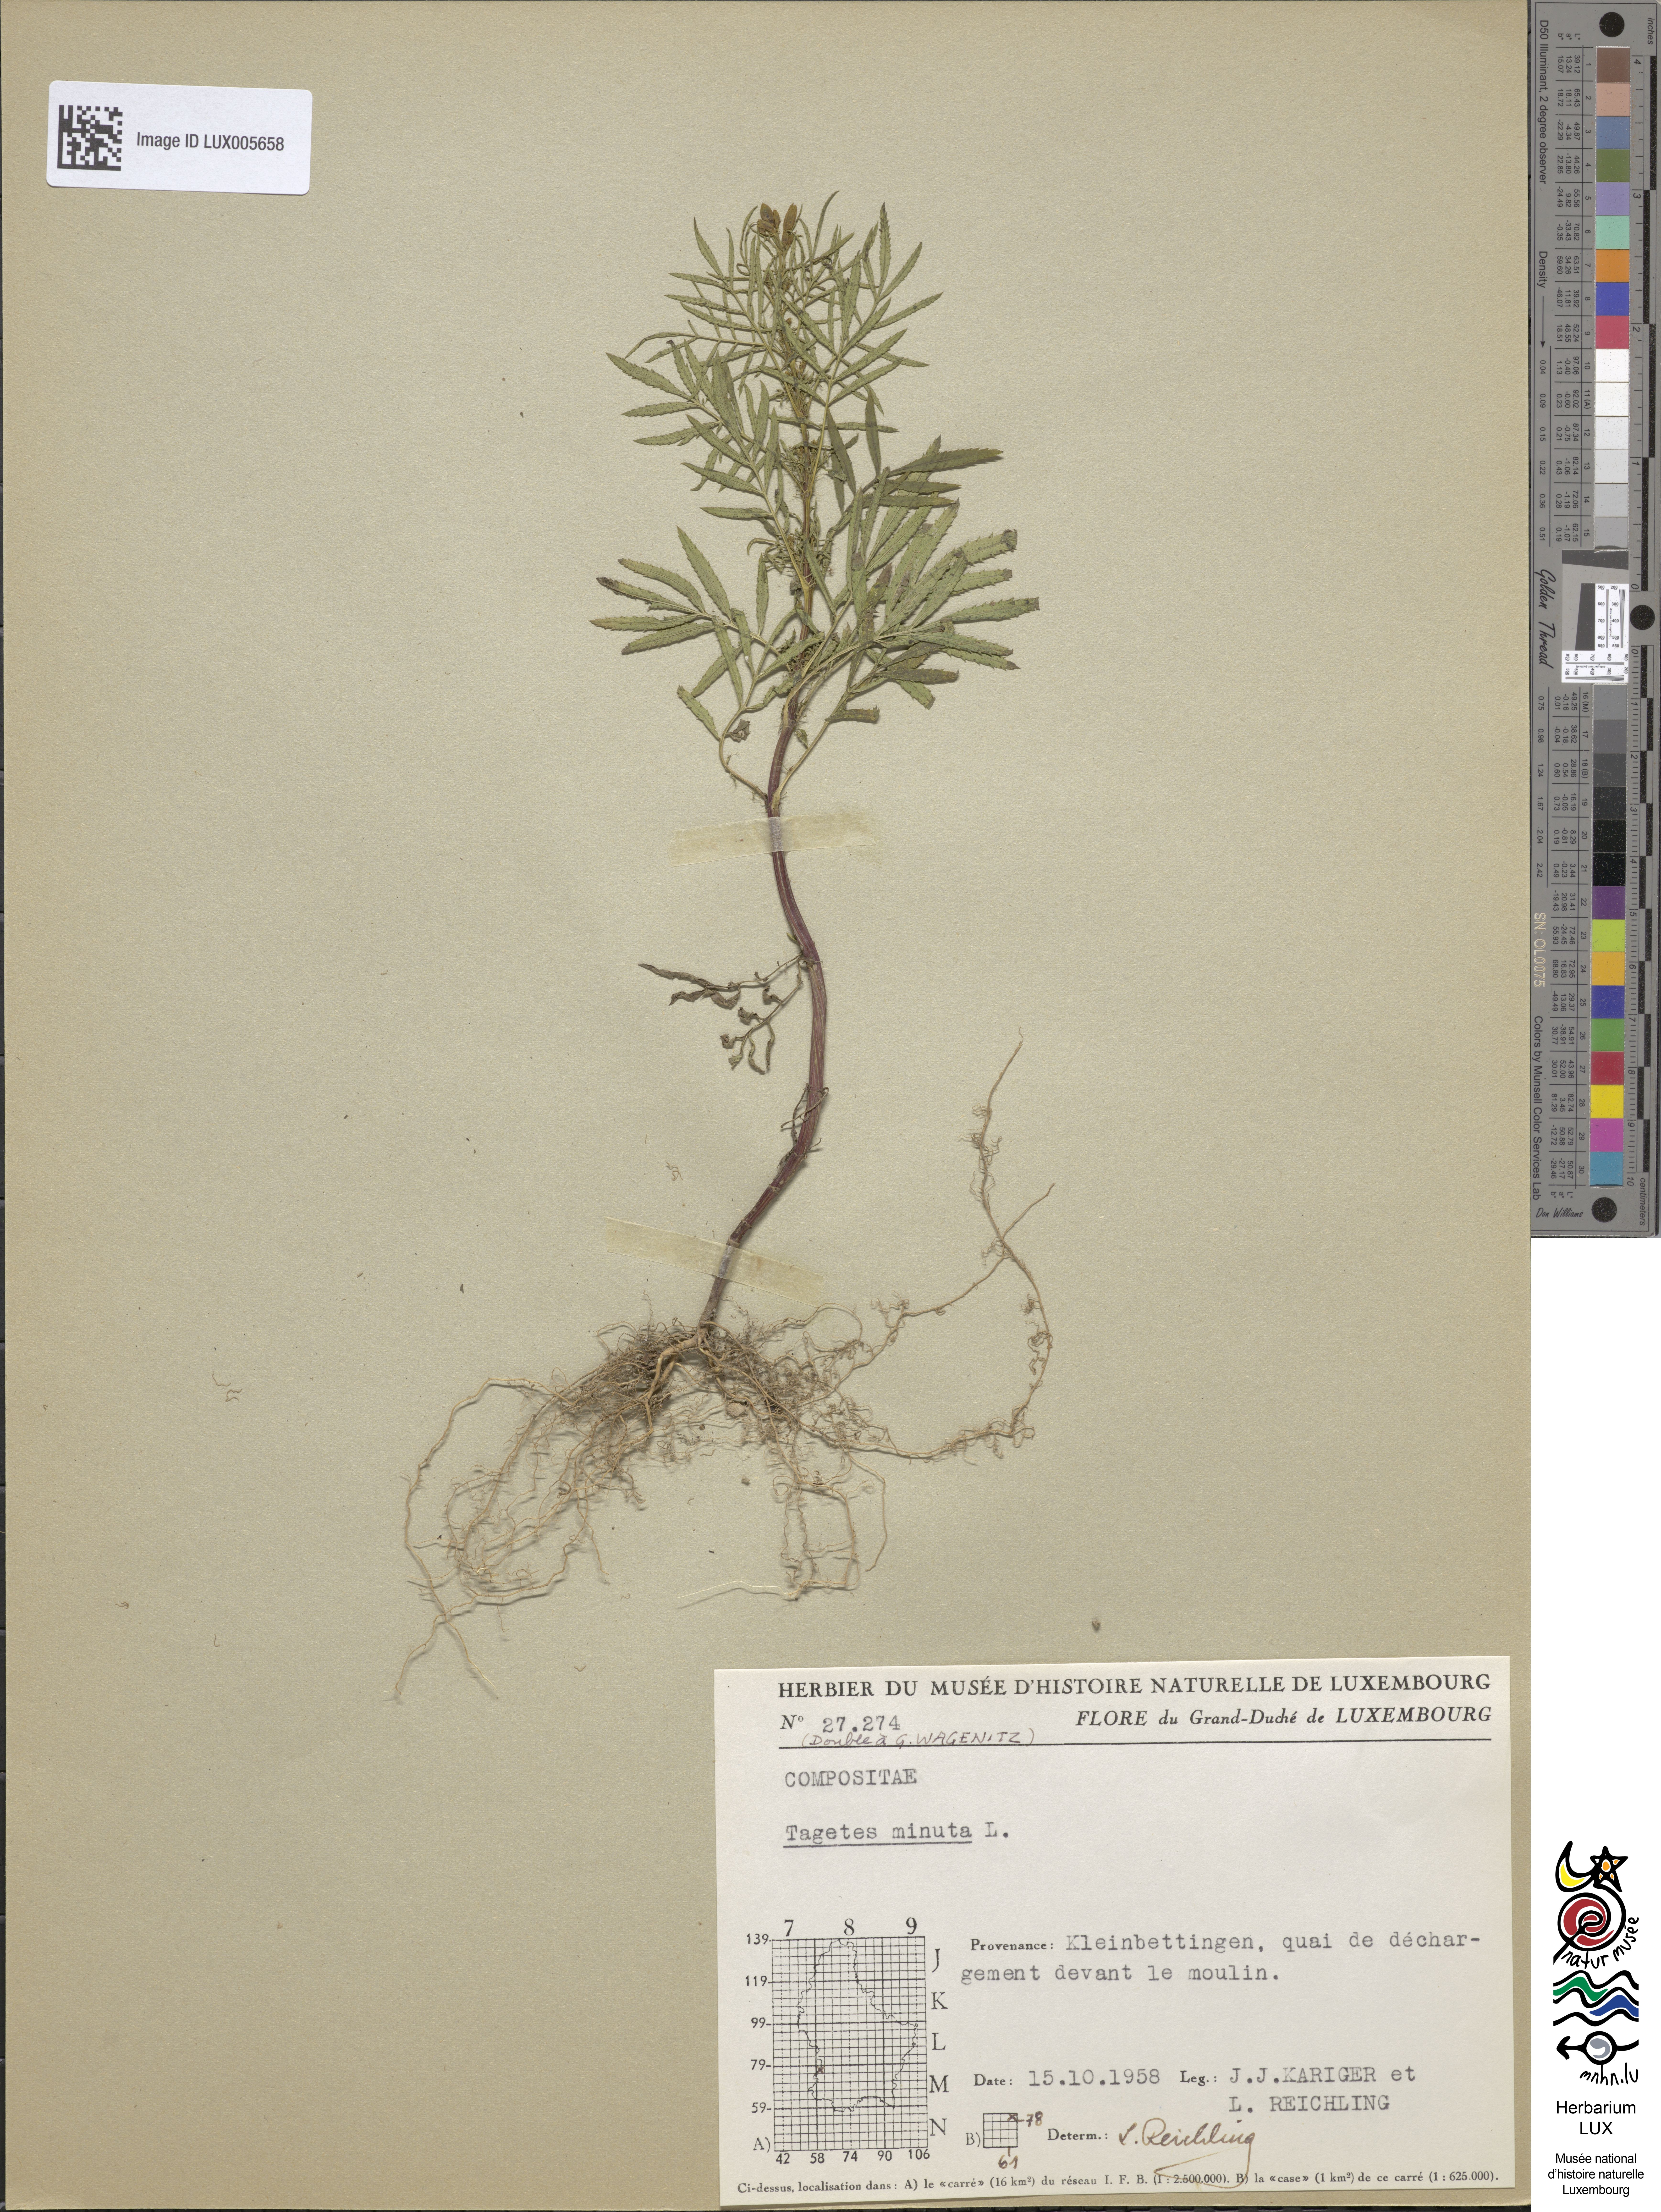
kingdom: Plantae
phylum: Tracheophyta
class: Magnoliopsida
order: Asterales
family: Asteraceae
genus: Tagetes
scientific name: Tagetes minuta
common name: Muster john henry
